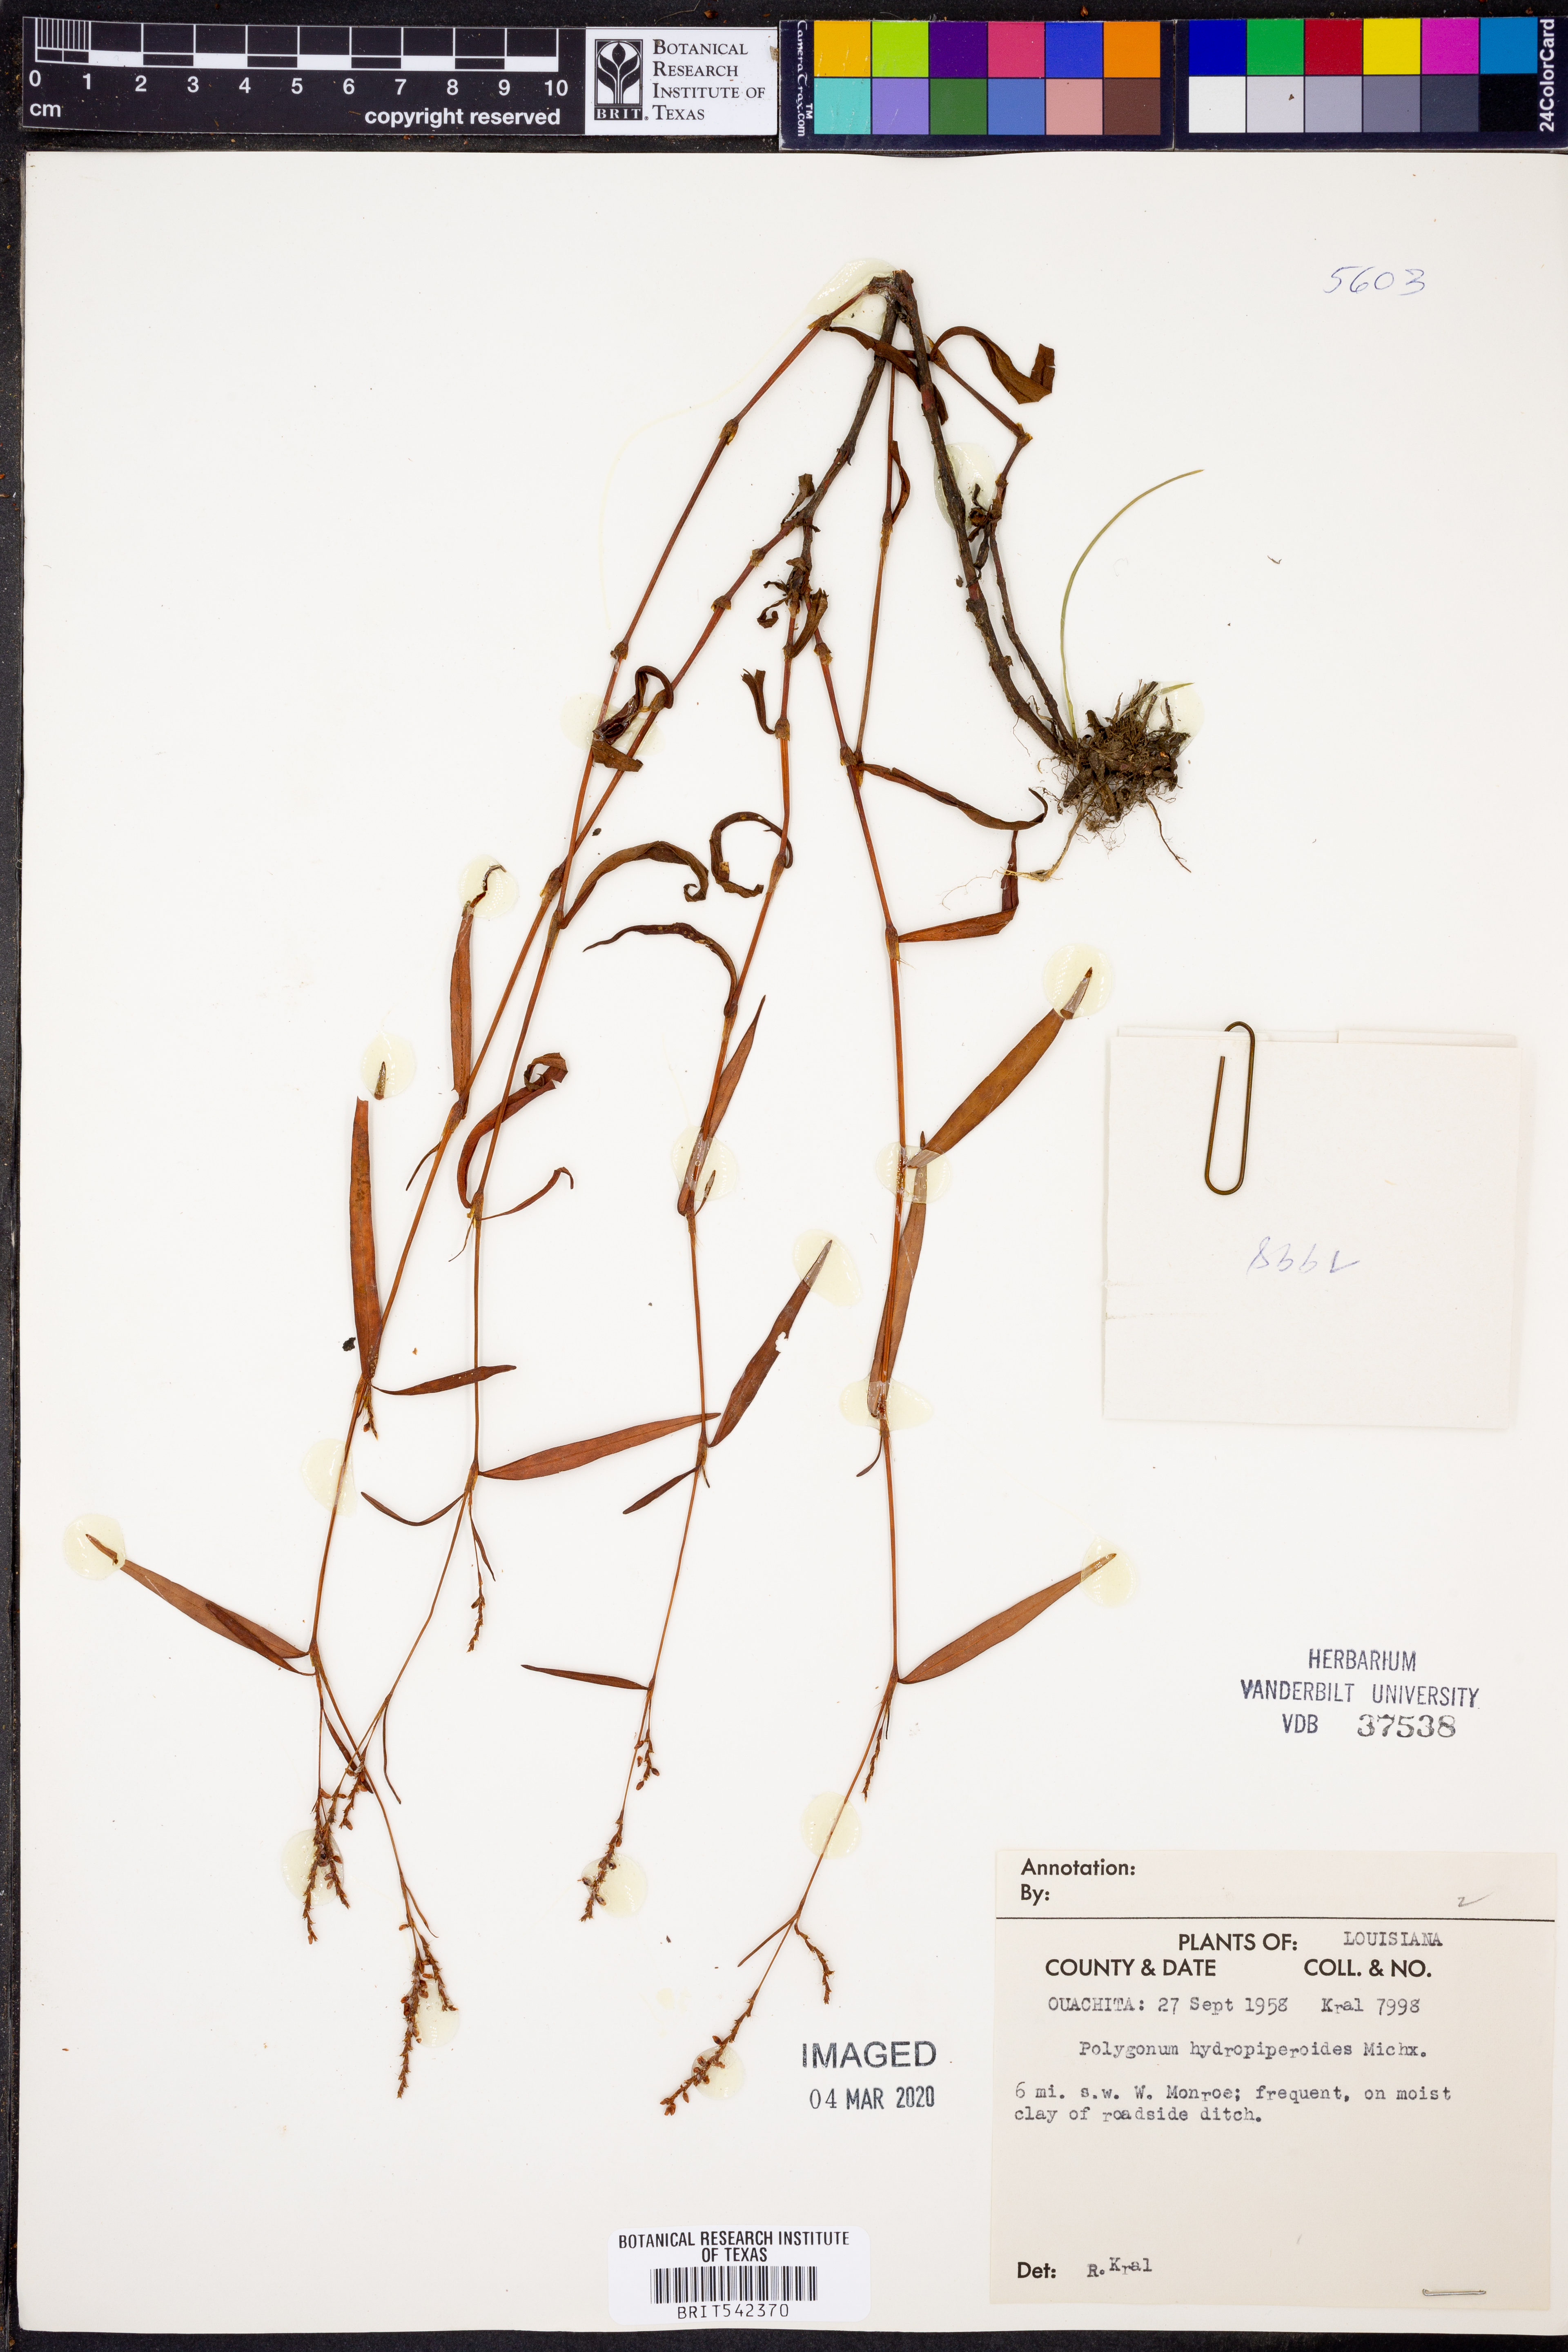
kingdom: Plantae
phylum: Tracheophyta
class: Magnoliopsida
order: Caryophyllales
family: Polygonaceae
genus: Persicaria
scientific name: Persicaria hydropiperoides
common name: Swamp smartweed
